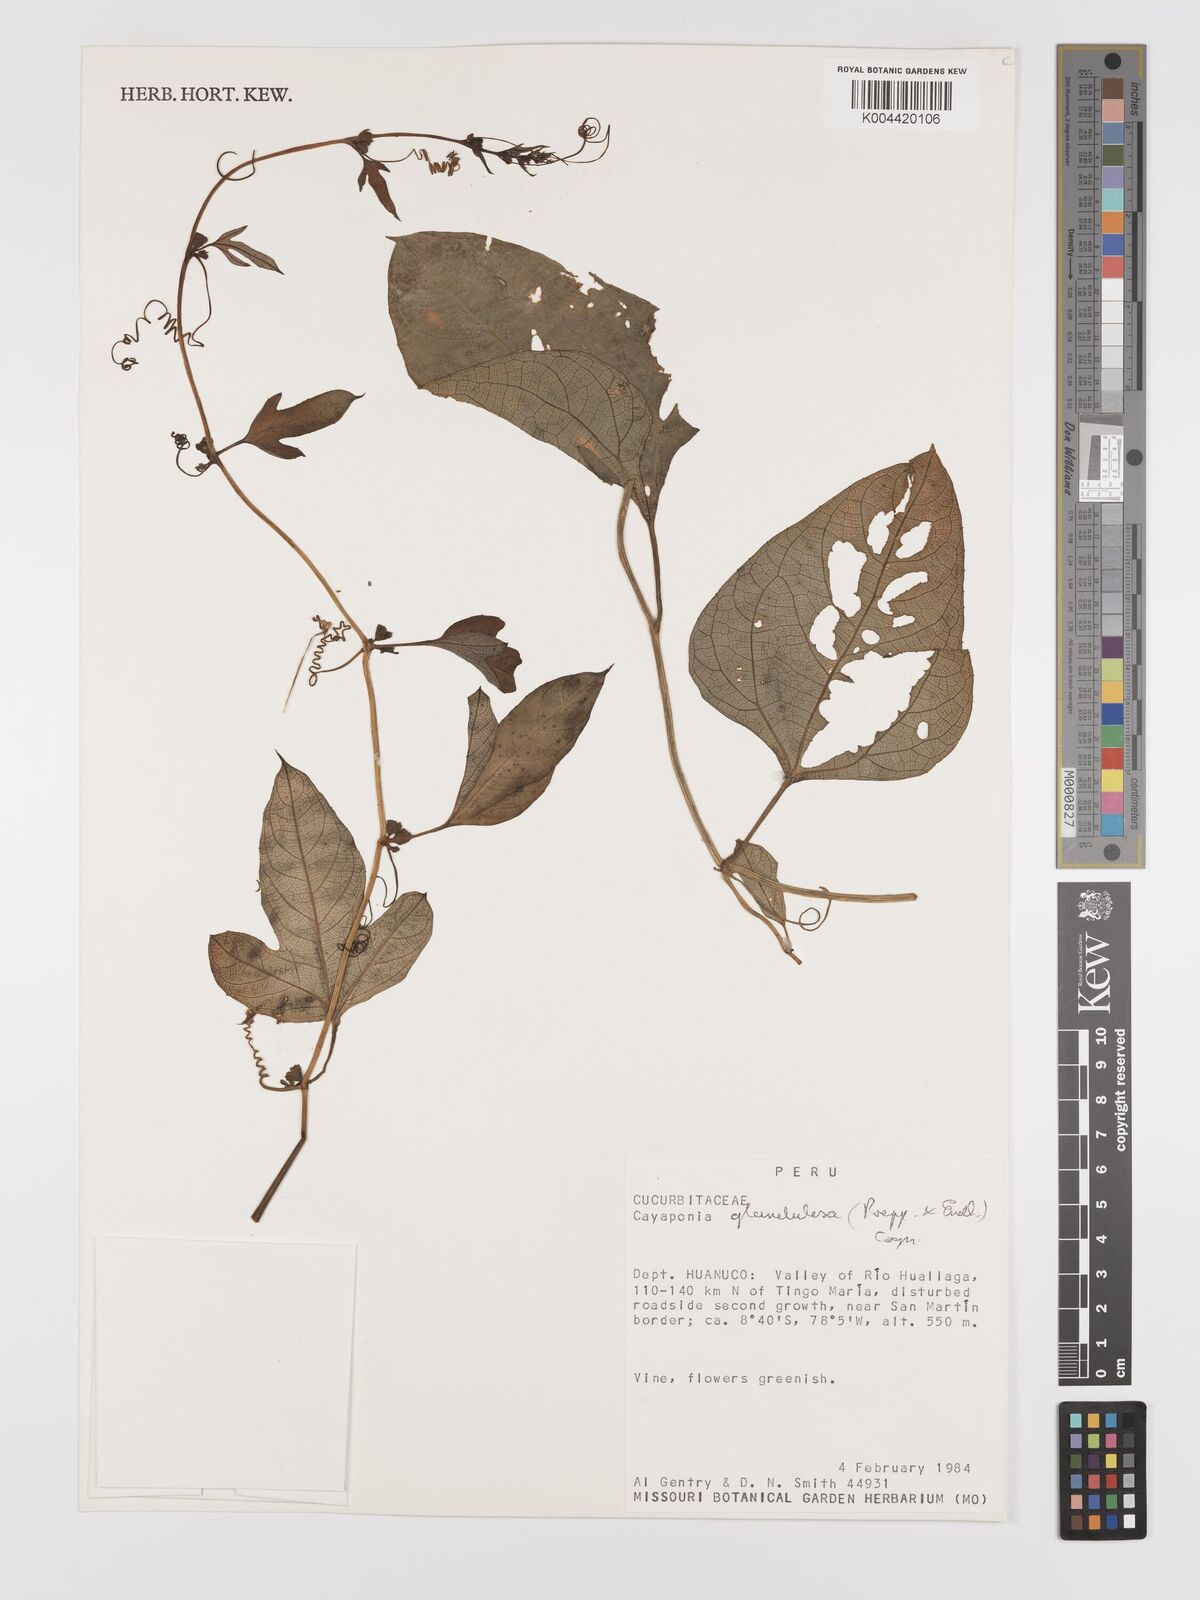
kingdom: Plantae
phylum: Tracheophyta
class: Magnoliopsida
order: Cucurbitales
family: Cucurbitaceae
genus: Cayaponia
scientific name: Cayaponia glandulosa
